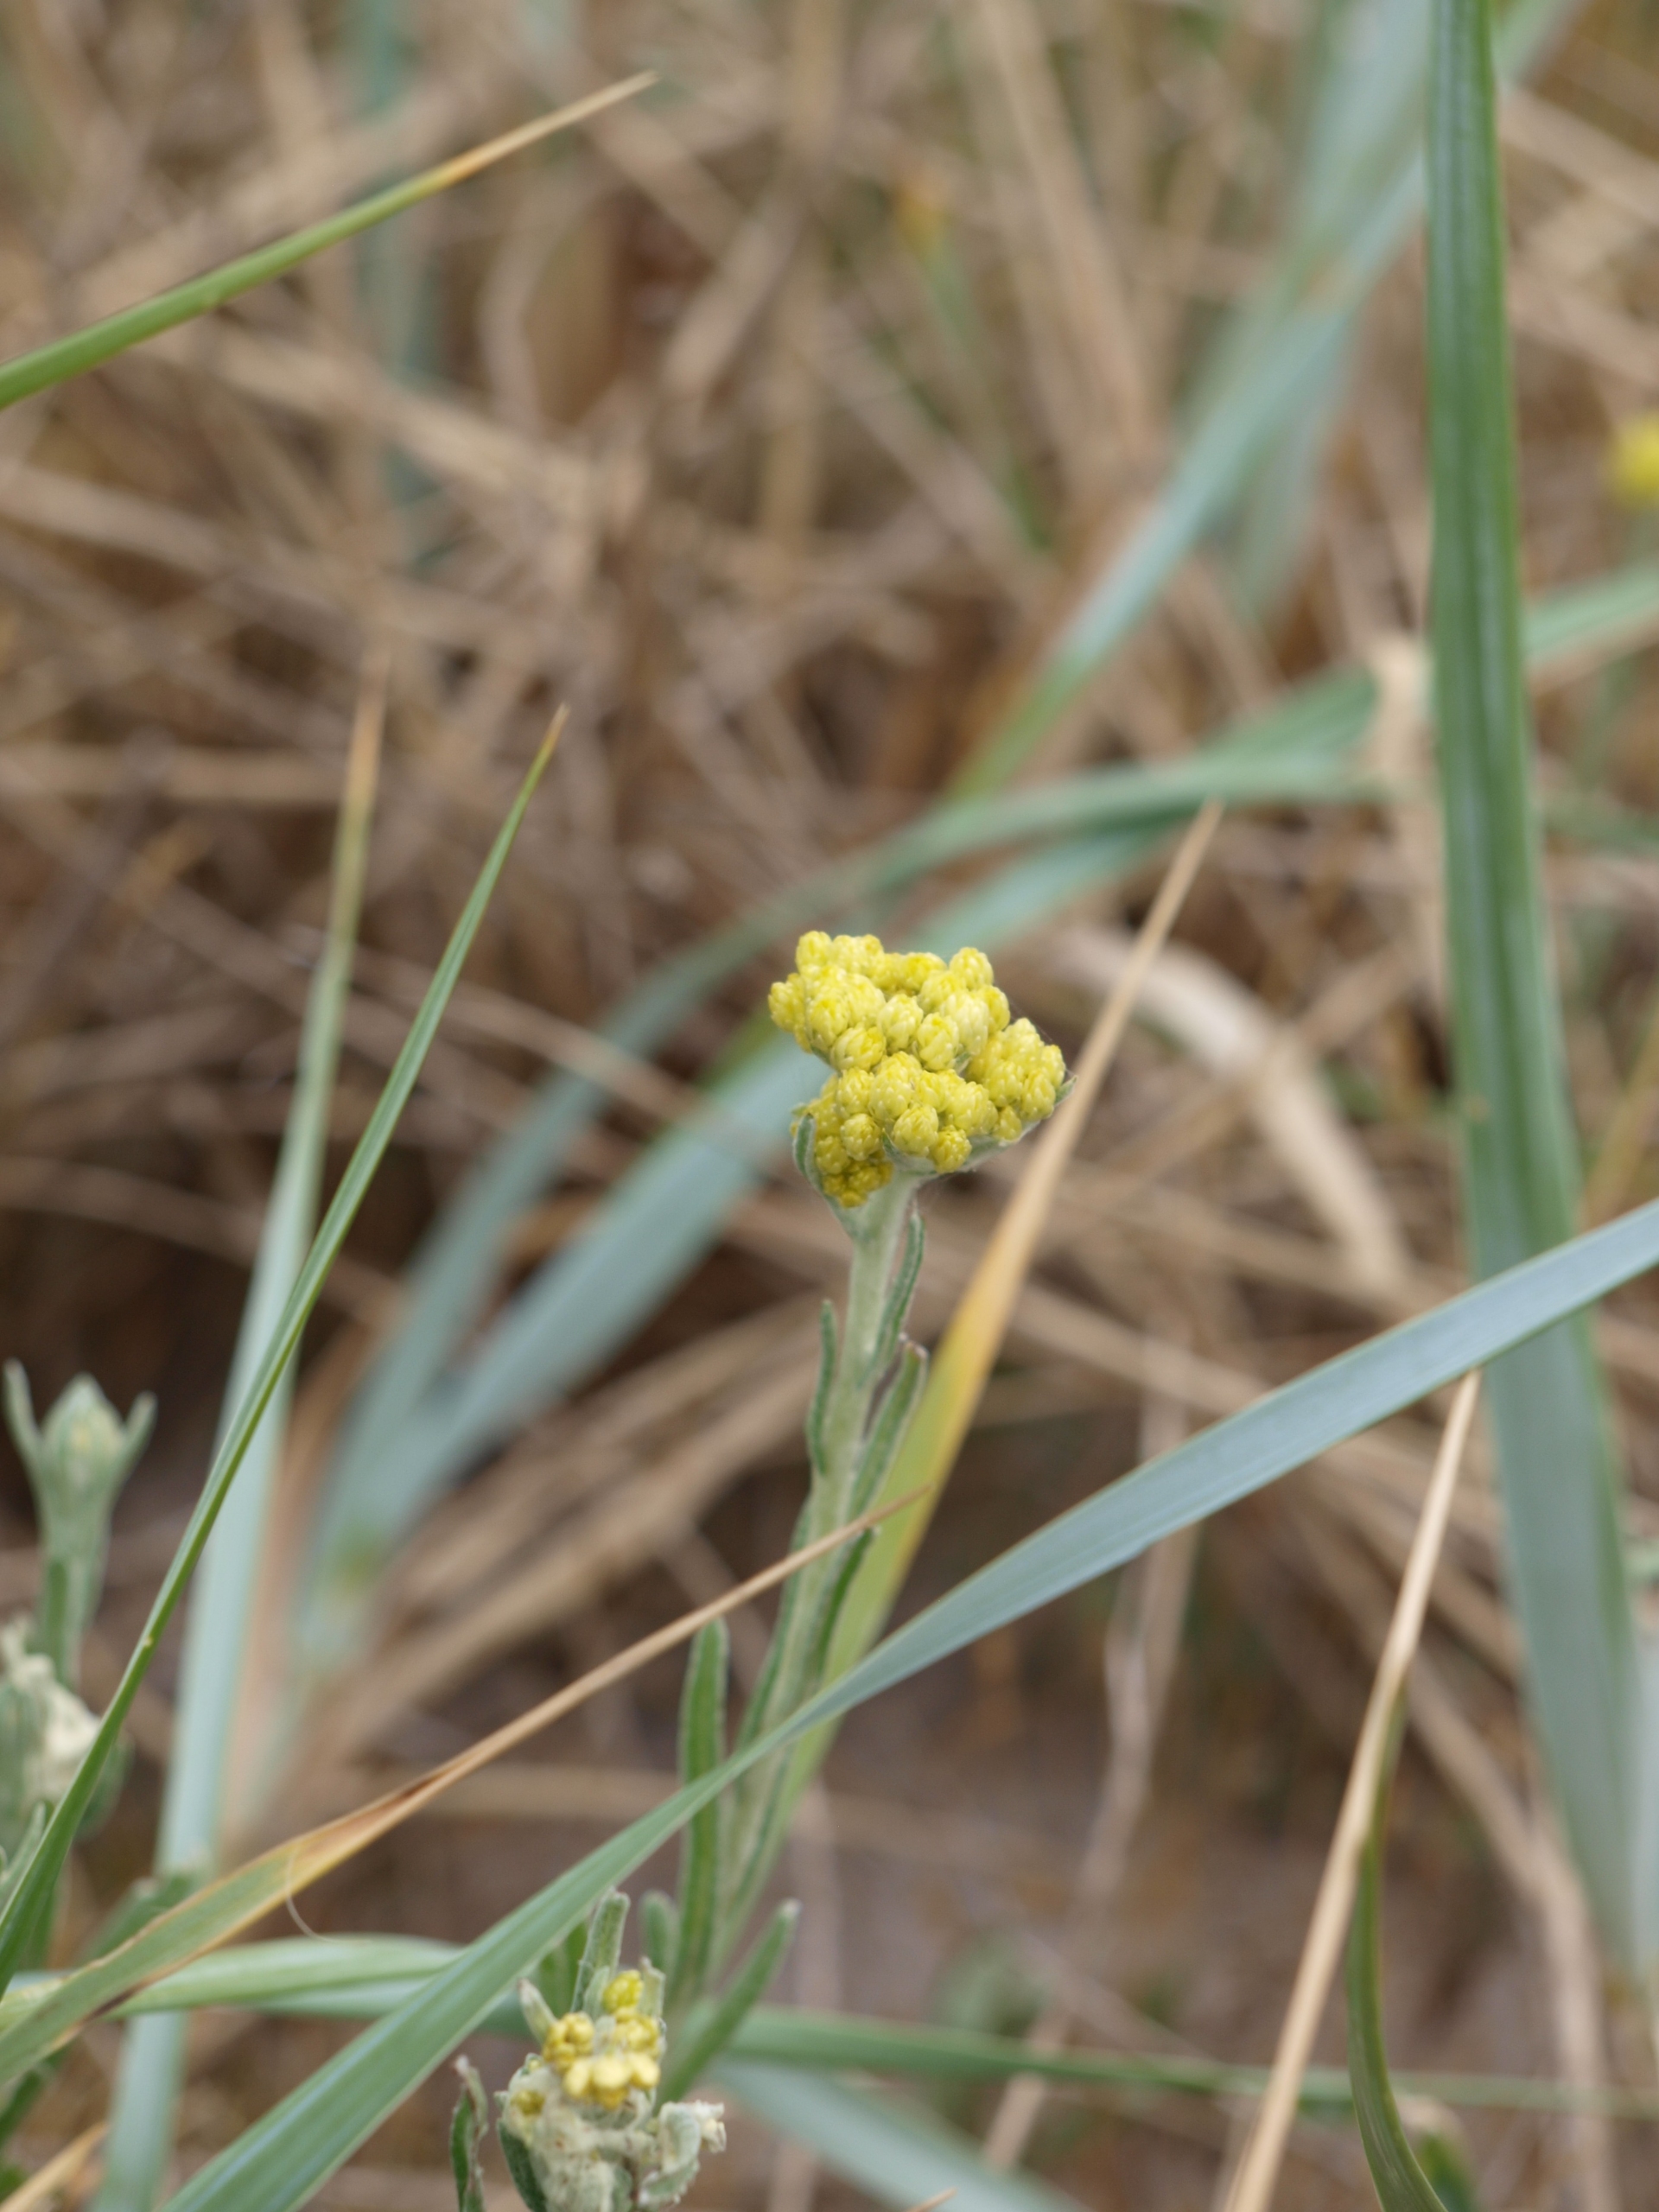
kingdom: Plantae
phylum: Tracheophyta
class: Magnoliopsida
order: Asterales
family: Asteraceae
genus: Helichrysum
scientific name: Helichrysum arenarium
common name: Gul evighedsblomst
